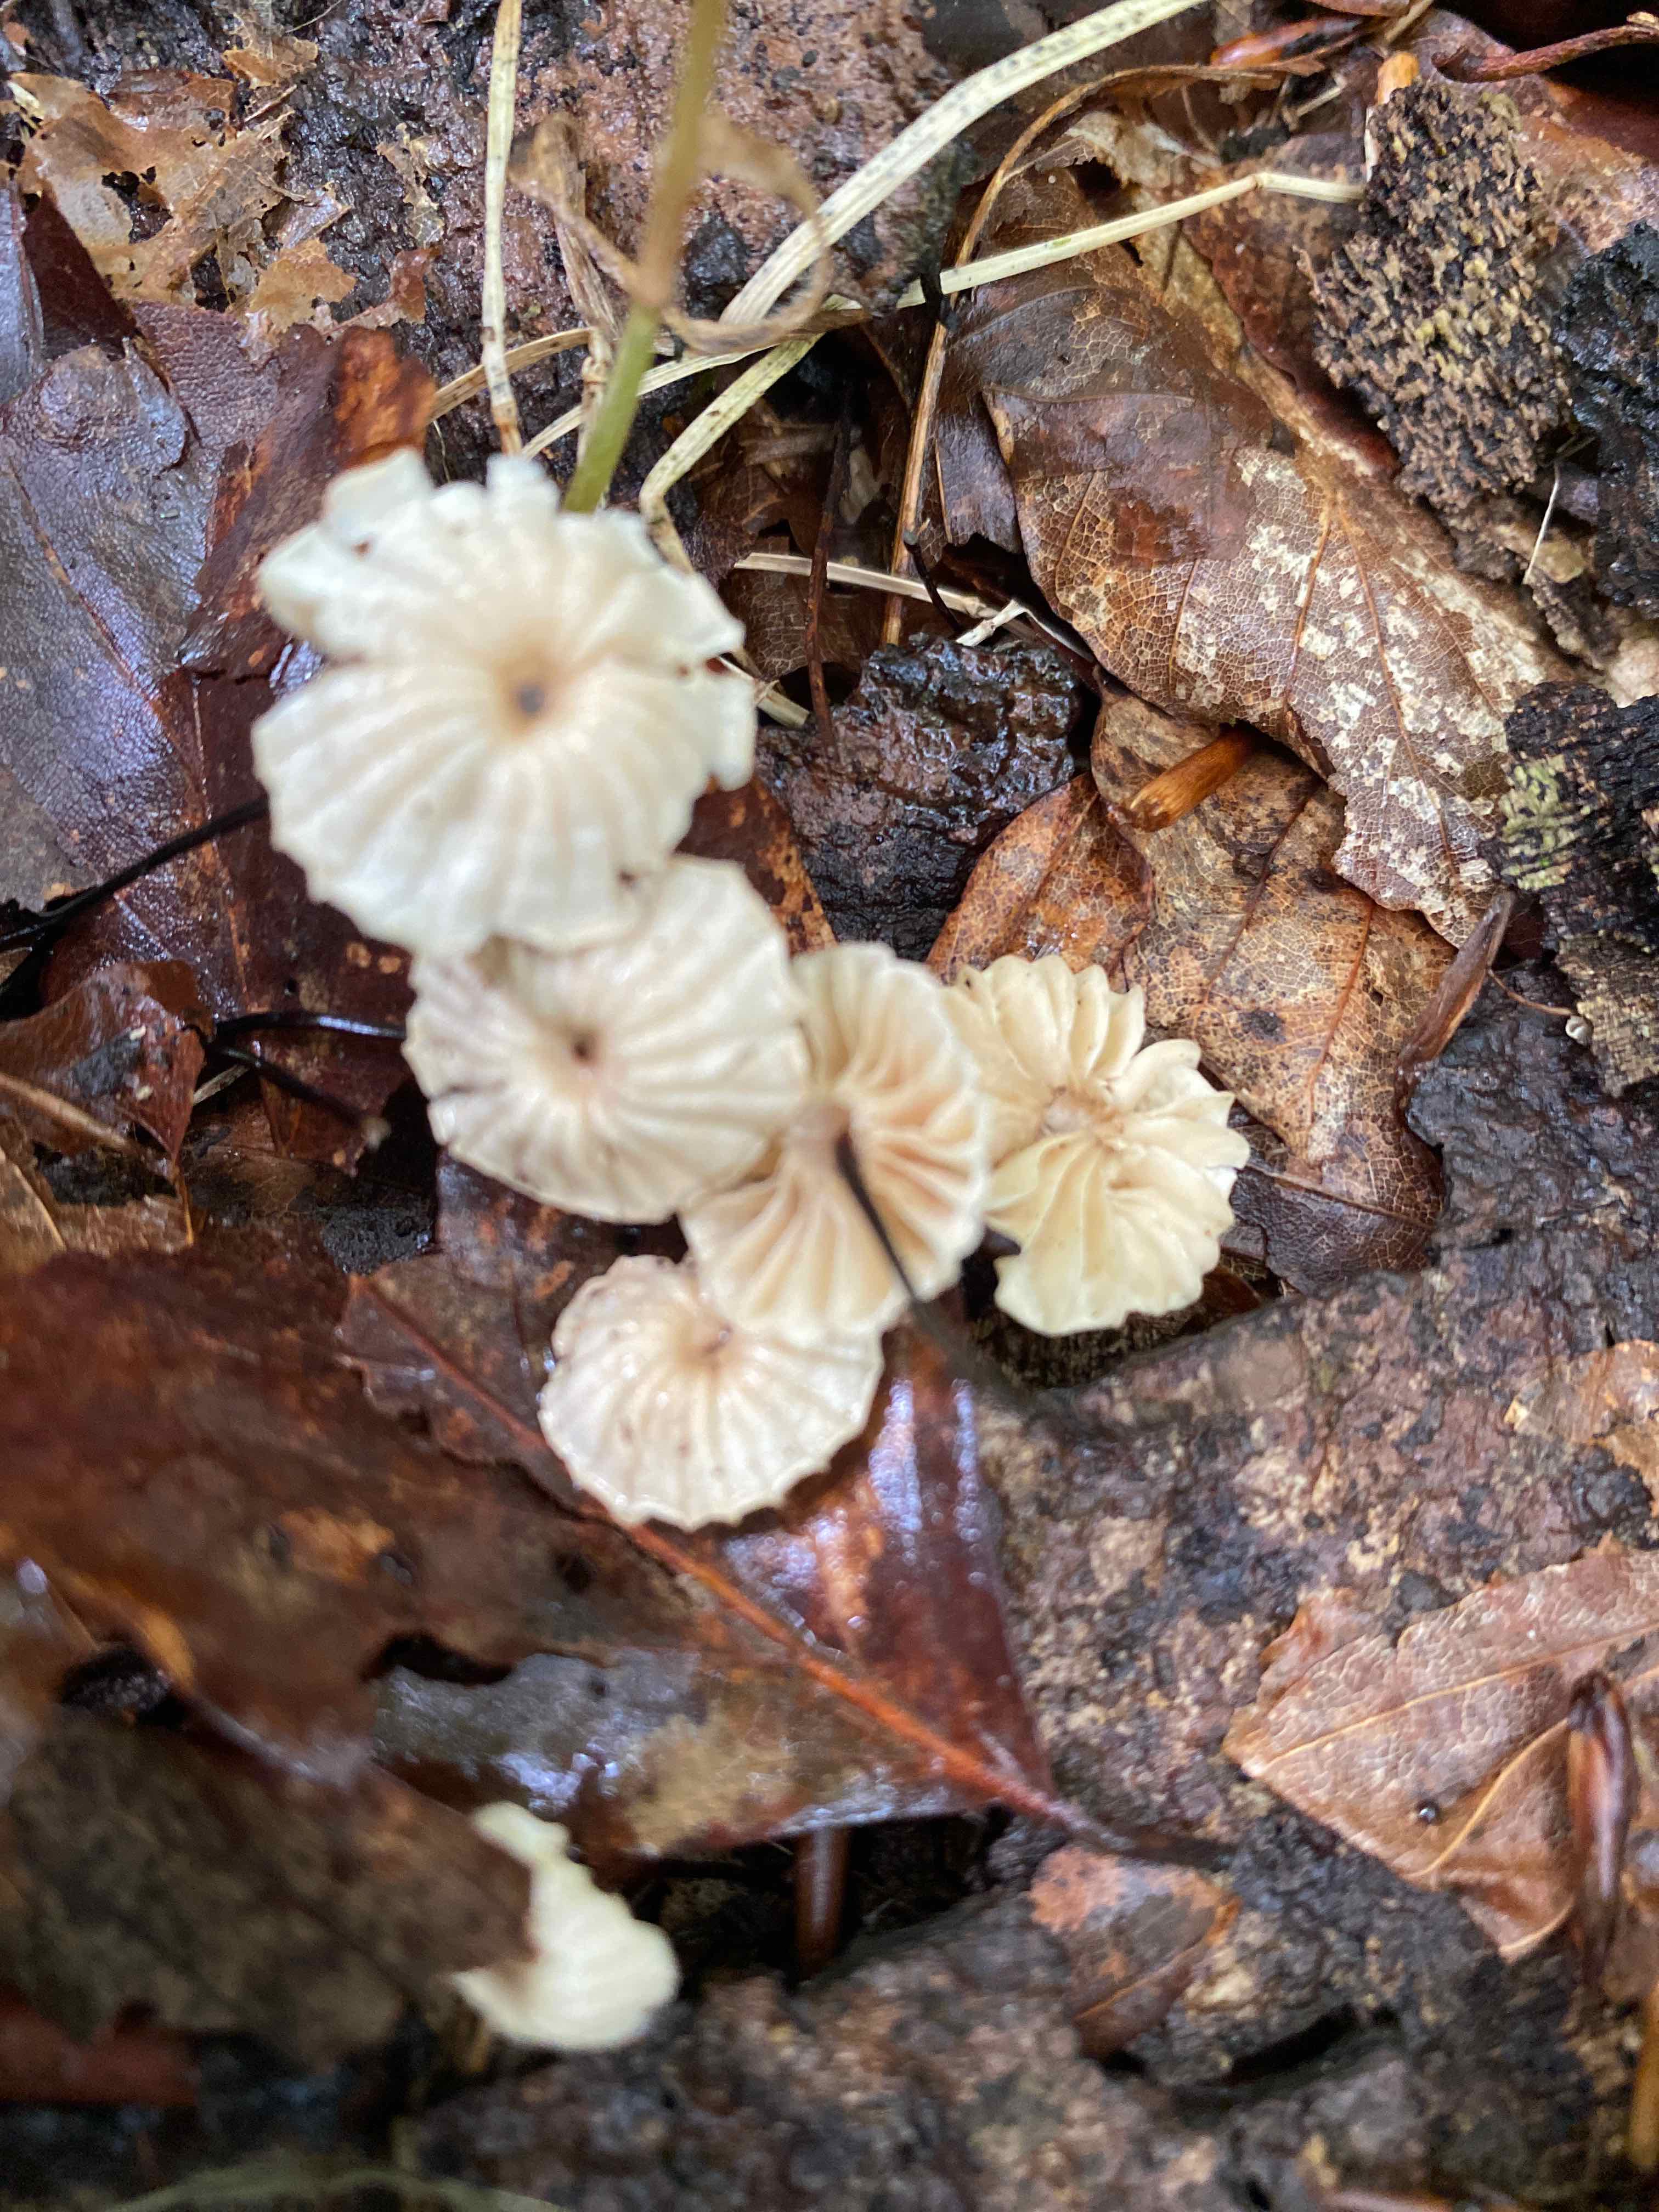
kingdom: Fungi
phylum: Basidiomycota
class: Agaricomycetes
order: Agaricales
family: Marasmiaceae
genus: Marasmius
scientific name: Marasmius rotula
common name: hjul-bruskhat
